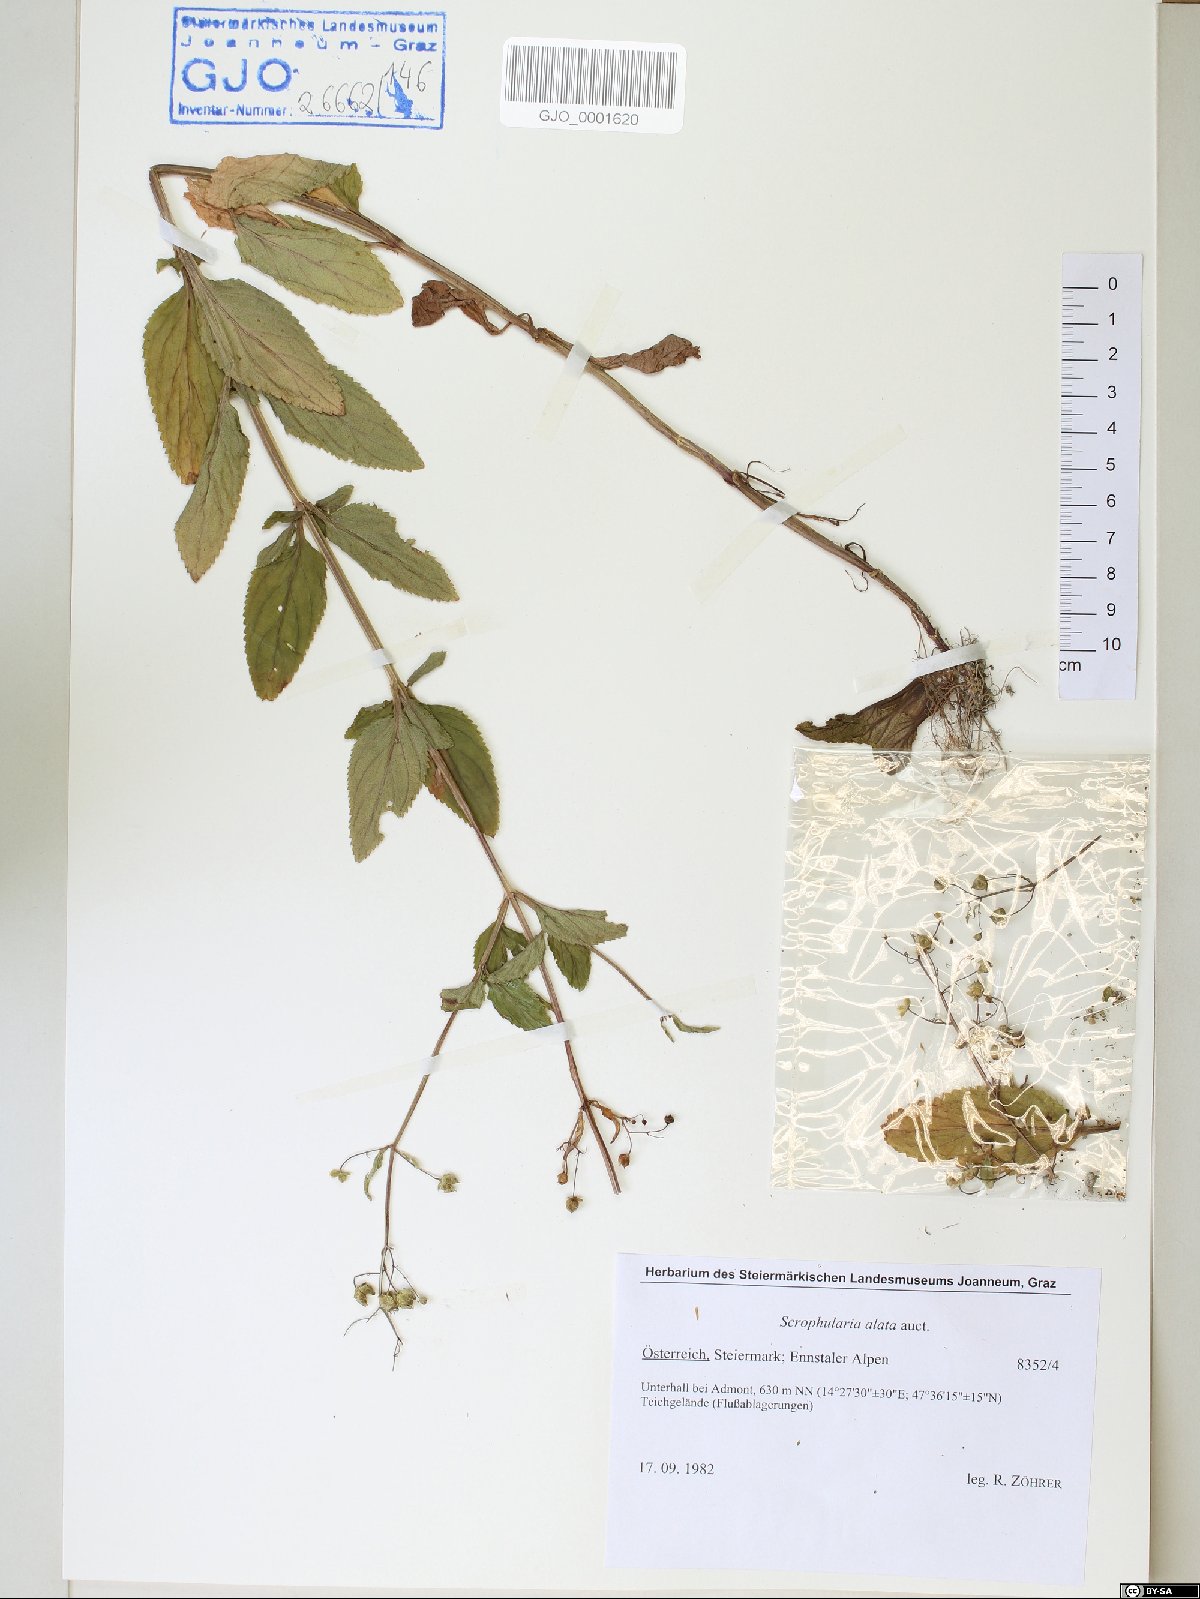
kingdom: Plantae
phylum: Tracheophyta
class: Magnoliopsida
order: Lamiales
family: Scrophulariaceae
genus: Scrophularia
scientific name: Scrophularia umbrosa
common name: Green figwort
